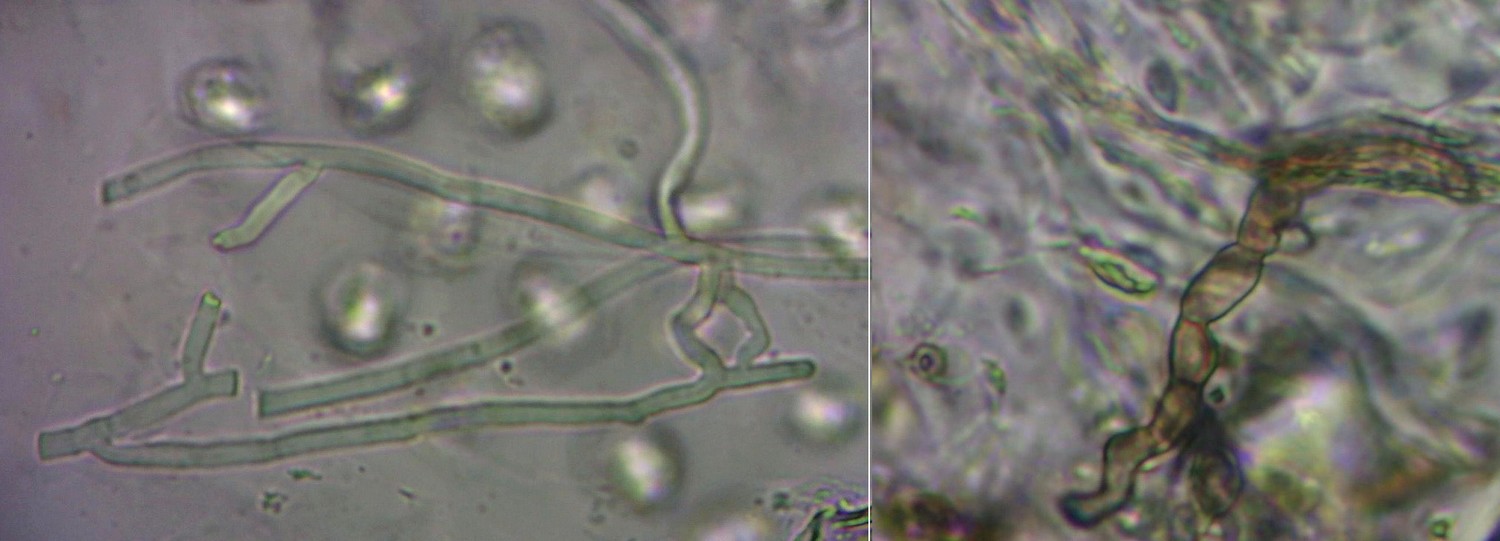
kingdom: Fungi
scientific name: Fungi
